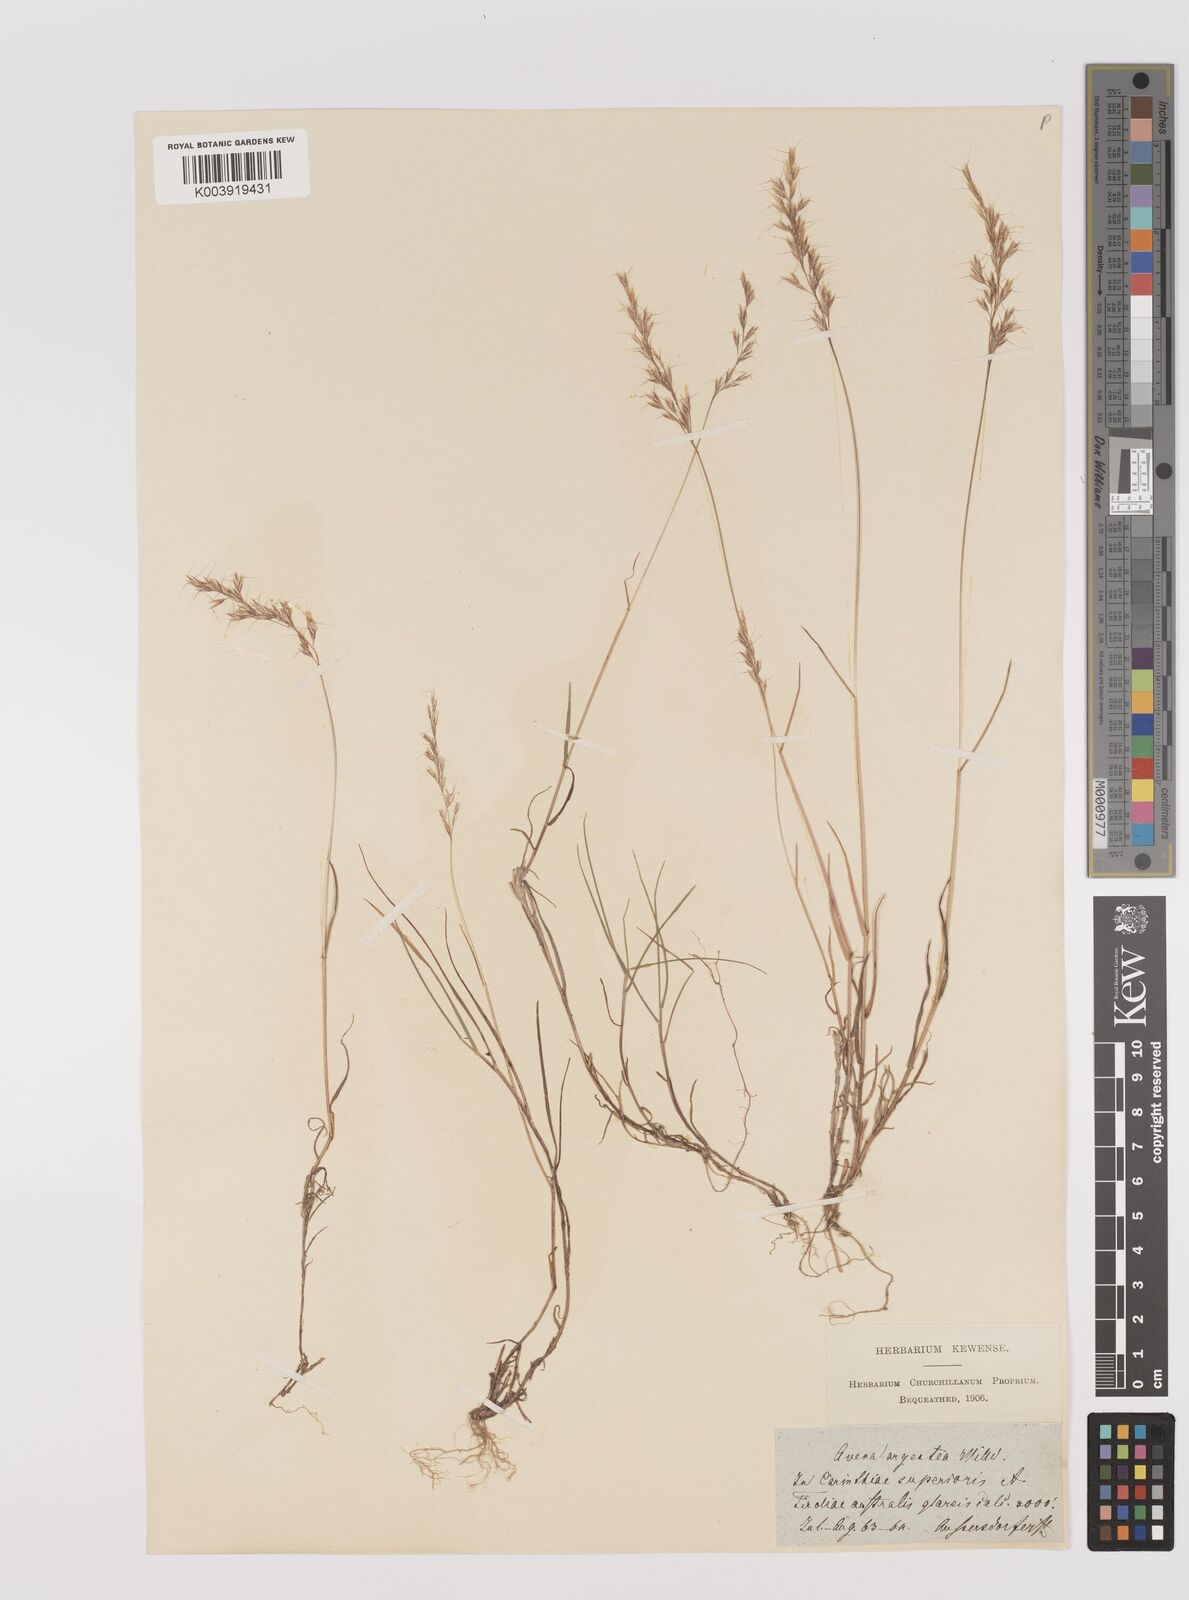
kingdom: Plantae
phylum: Tracheophyta
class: Liliopsida
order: Poales
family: Poaceae
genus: Trisetum
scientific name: Trisetum argenteum
